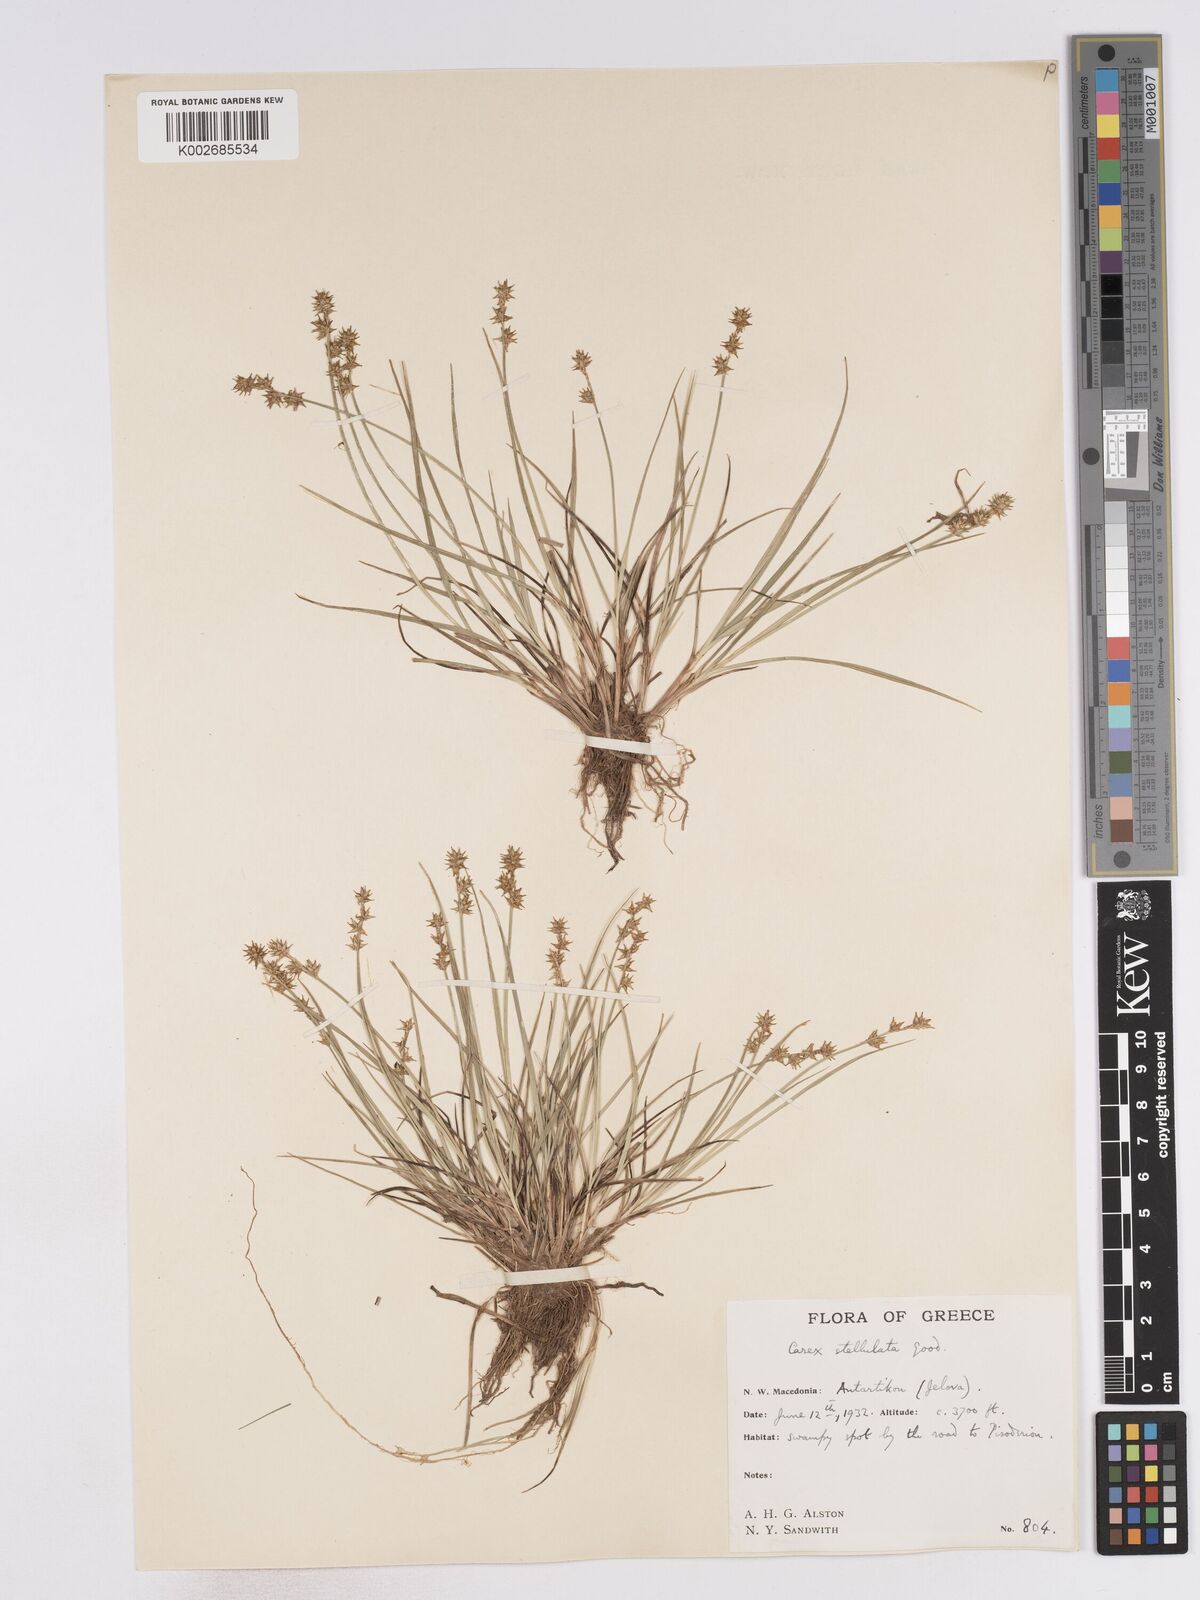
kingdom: Plantae
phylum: Tracheophyta
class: Liliopsida
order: Poales
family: Cyperaceae
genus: Carex
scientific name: Carex echinata
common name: Star sedge
